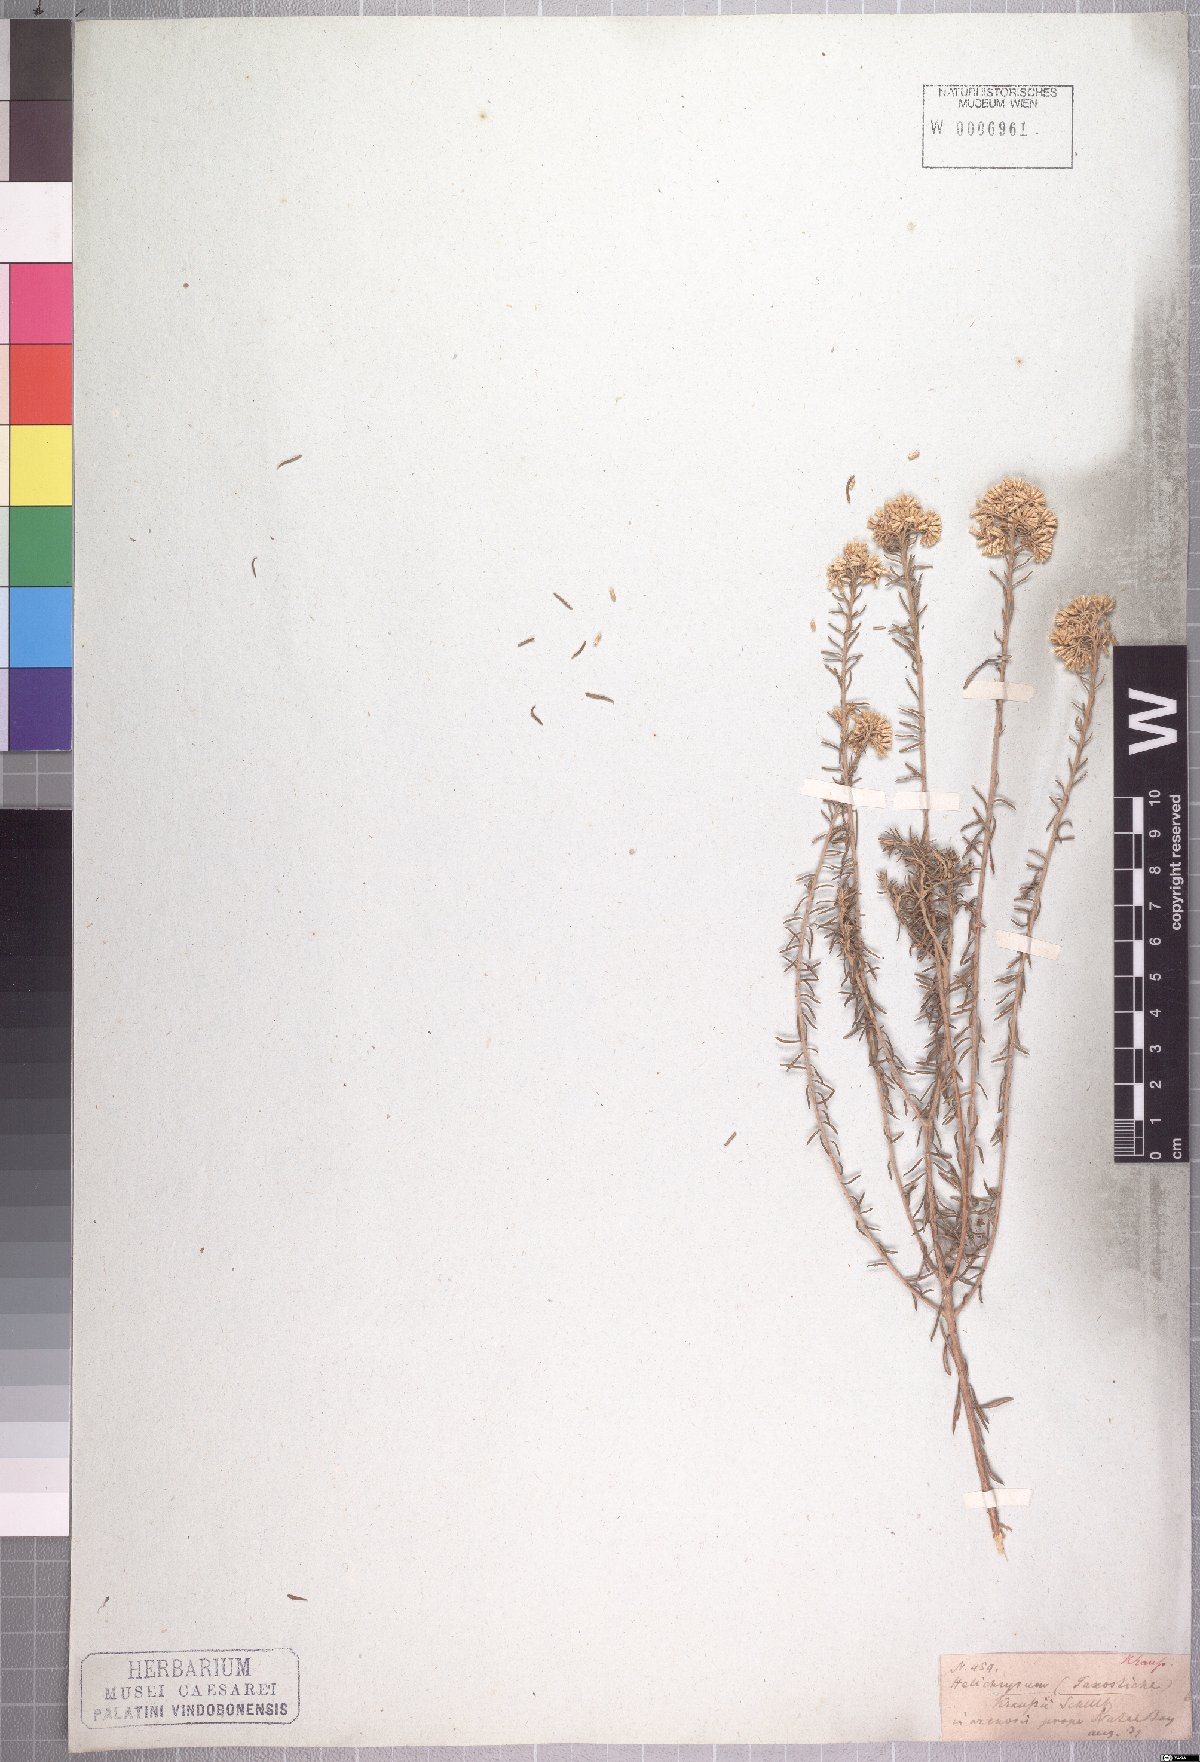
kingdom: Plantae
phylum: Tracheophyta
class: Magnoliopsida
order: Asterales
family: Asteraceae
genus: Helichrysum
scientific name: Helichrysum kraussii
